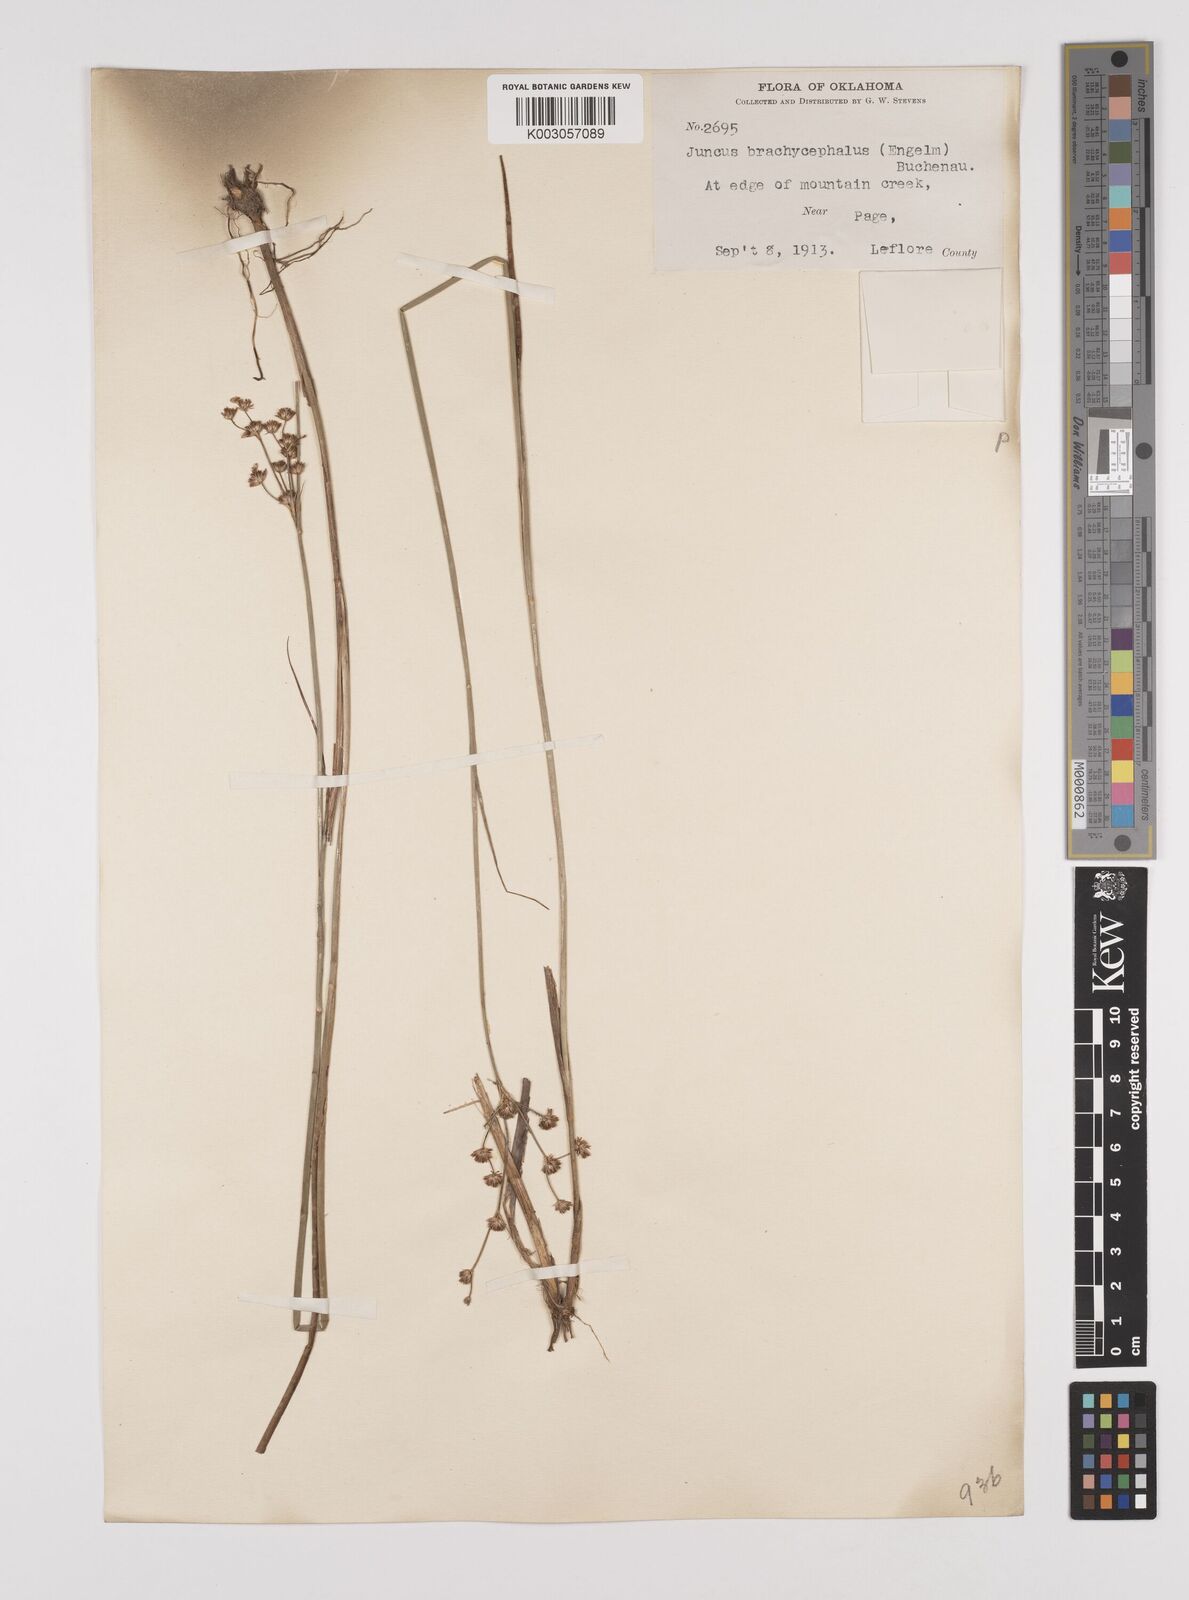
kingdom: Plantae
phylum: Tracheophyta
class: Liliopsida
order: Poales
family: Juncaceae
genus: Juncus
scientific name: Juncus canadensis
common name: Canada rush
